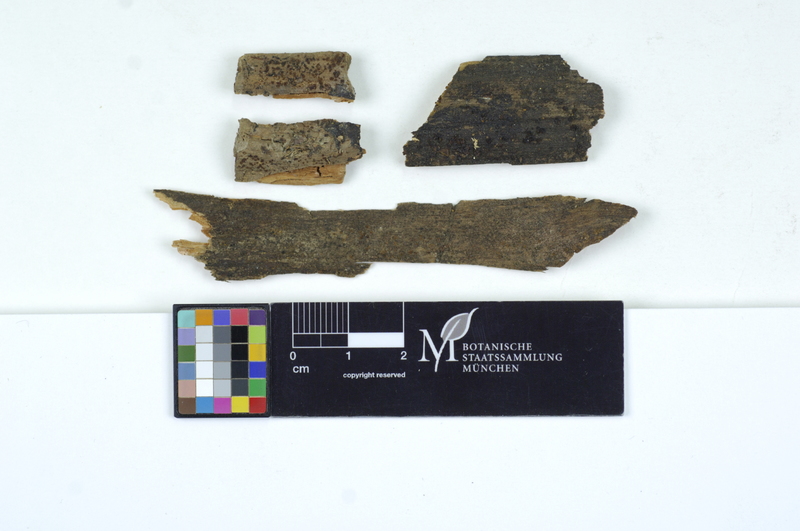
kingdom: Fungi
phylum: Basidiomycota
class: Dacrymycetes
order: Dacrymycetales
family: Dacryonaemataceae
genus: Dacryonaema
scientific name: Dacryonaema macnabbii
